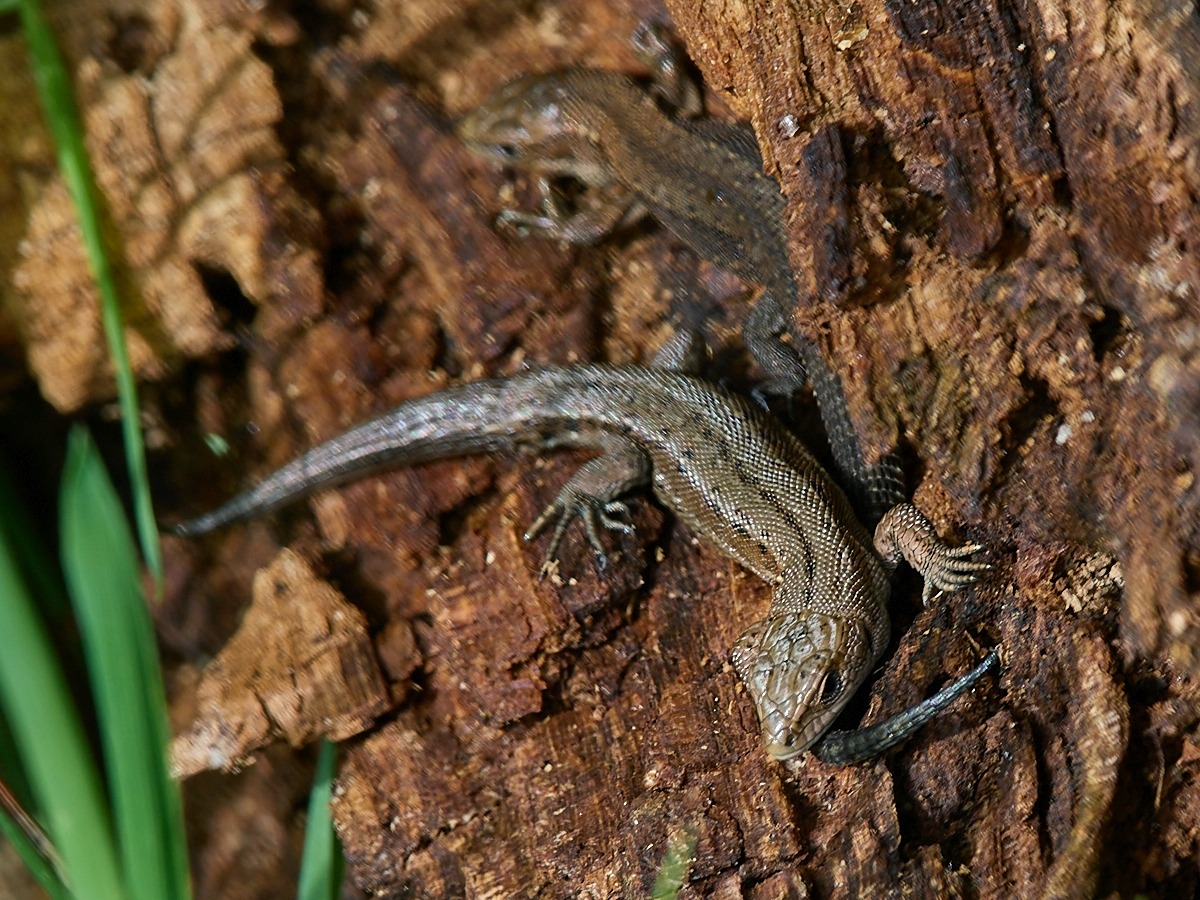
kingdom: Animalia
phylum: Chordata
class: Squamata
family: Lacertidae
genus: Zootoca
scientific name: Zootoca vivipara
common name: Skovfirben
